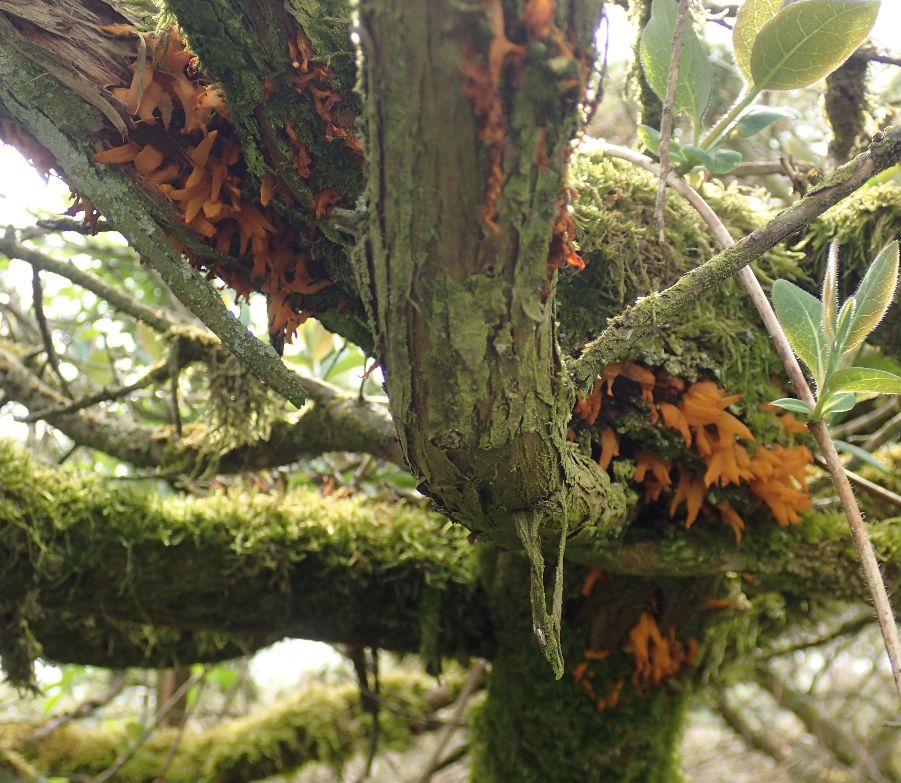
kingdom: Fungi
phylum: Basidiomycota
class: Pucciniomycetes
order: Pucciniales
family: Gymnosporangiaceae
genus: Gymnosporangium
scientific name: Gymnosporangium clavariiforme
